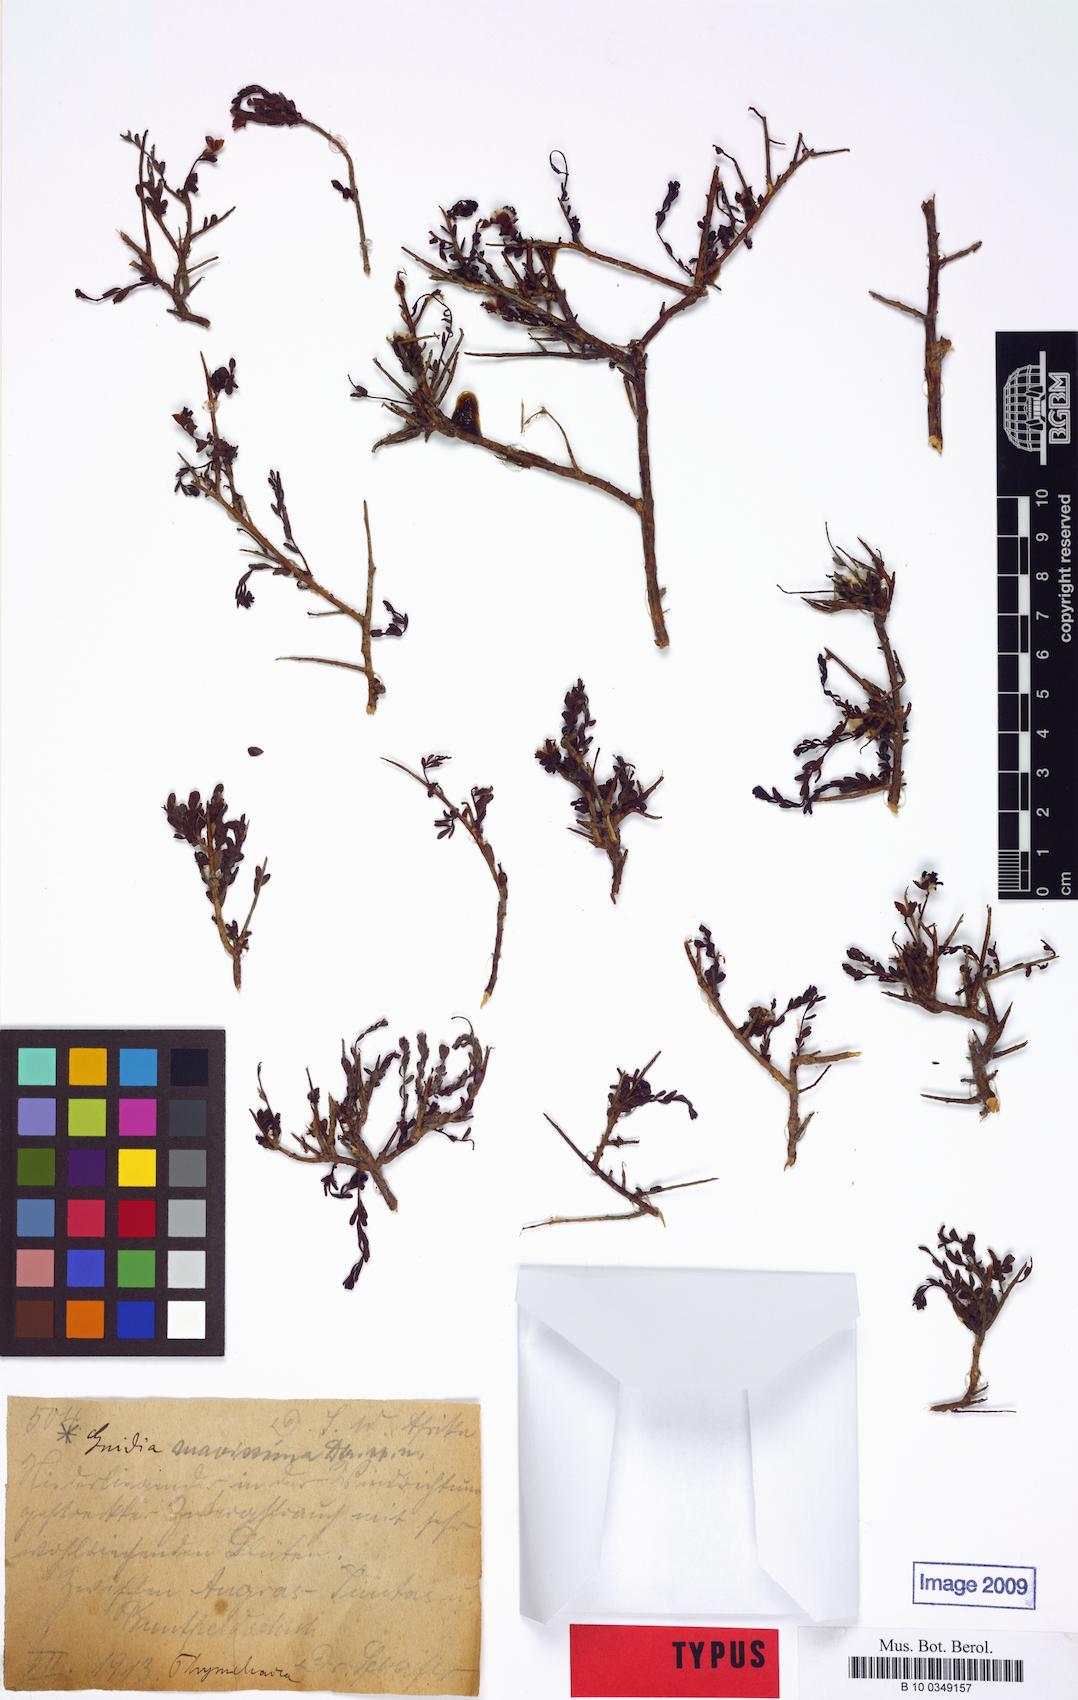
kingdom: Plantae
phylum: Tracheophyta
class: Magnoliopsida
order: Malvales
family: Thymelaeaceae
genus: Gnidia
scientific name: Gnidia suavissima
